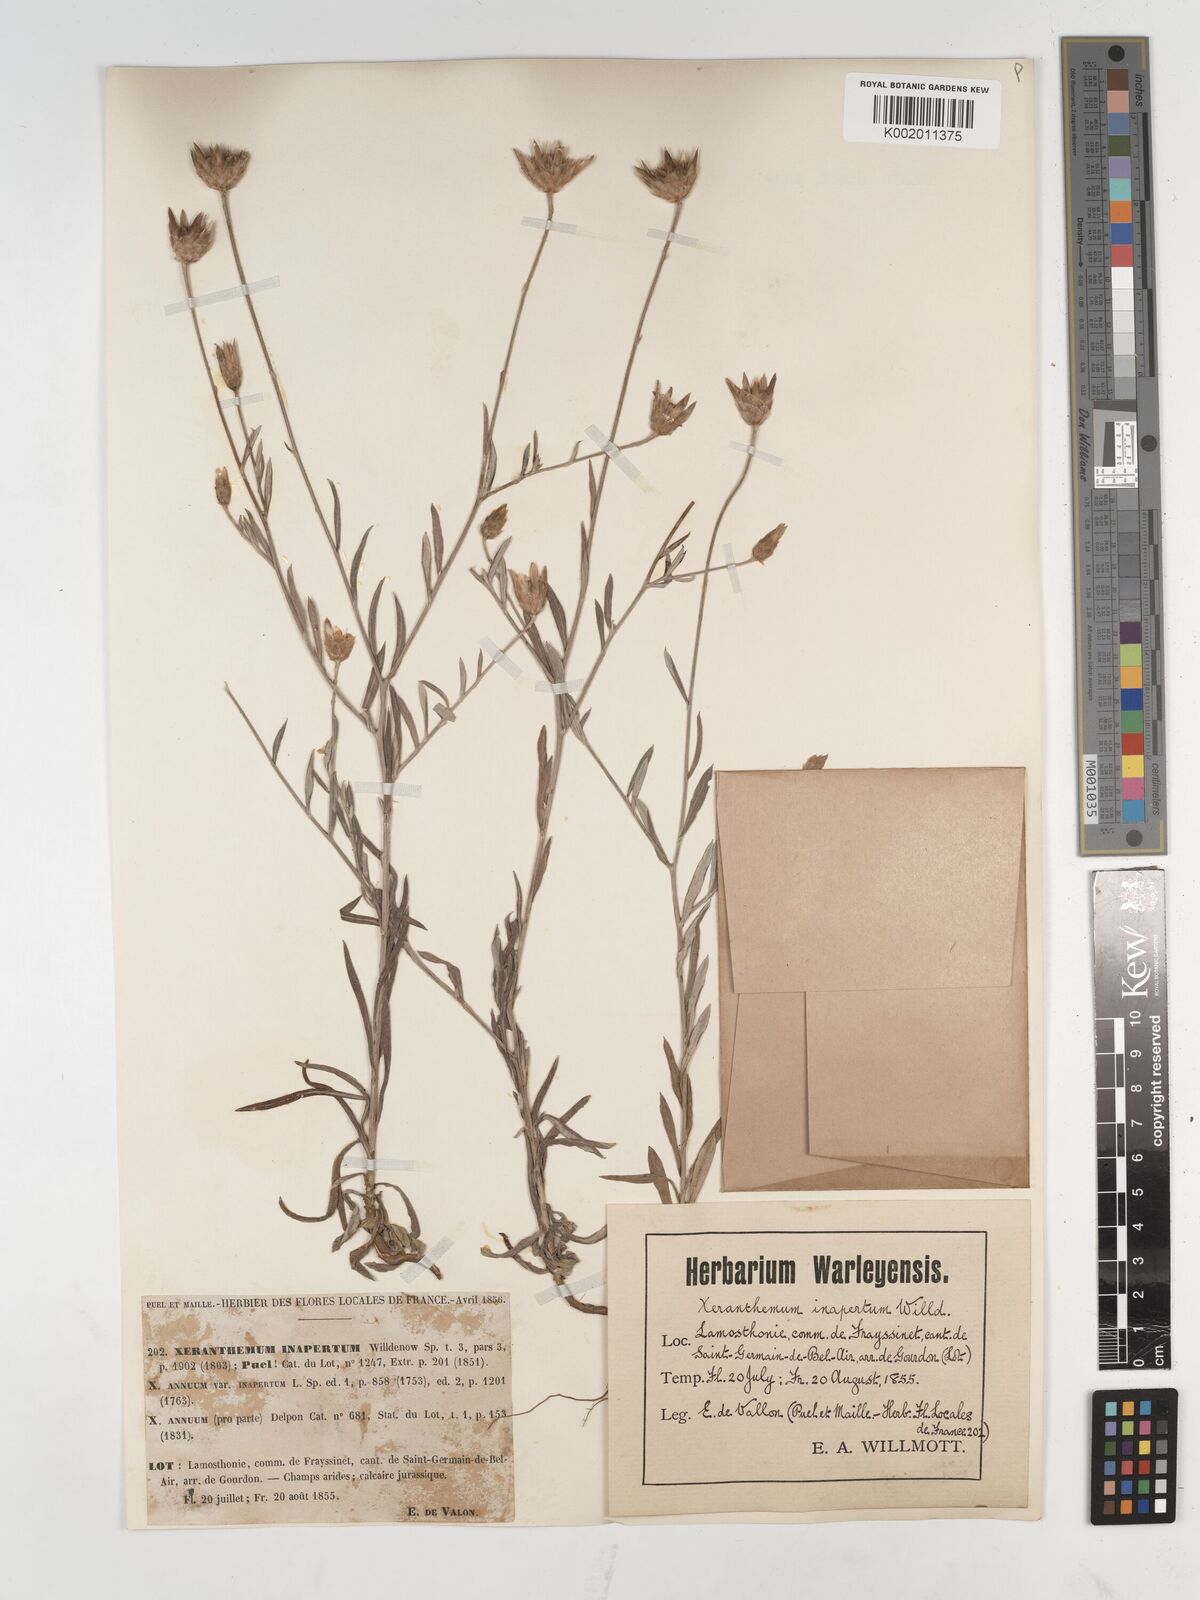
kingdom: Plantae
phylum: Tracheophyta
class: Magnoliopsida
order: Asterales
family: Asteraceae
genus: Xeranthemum
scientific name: Xeranthemum inapertum
